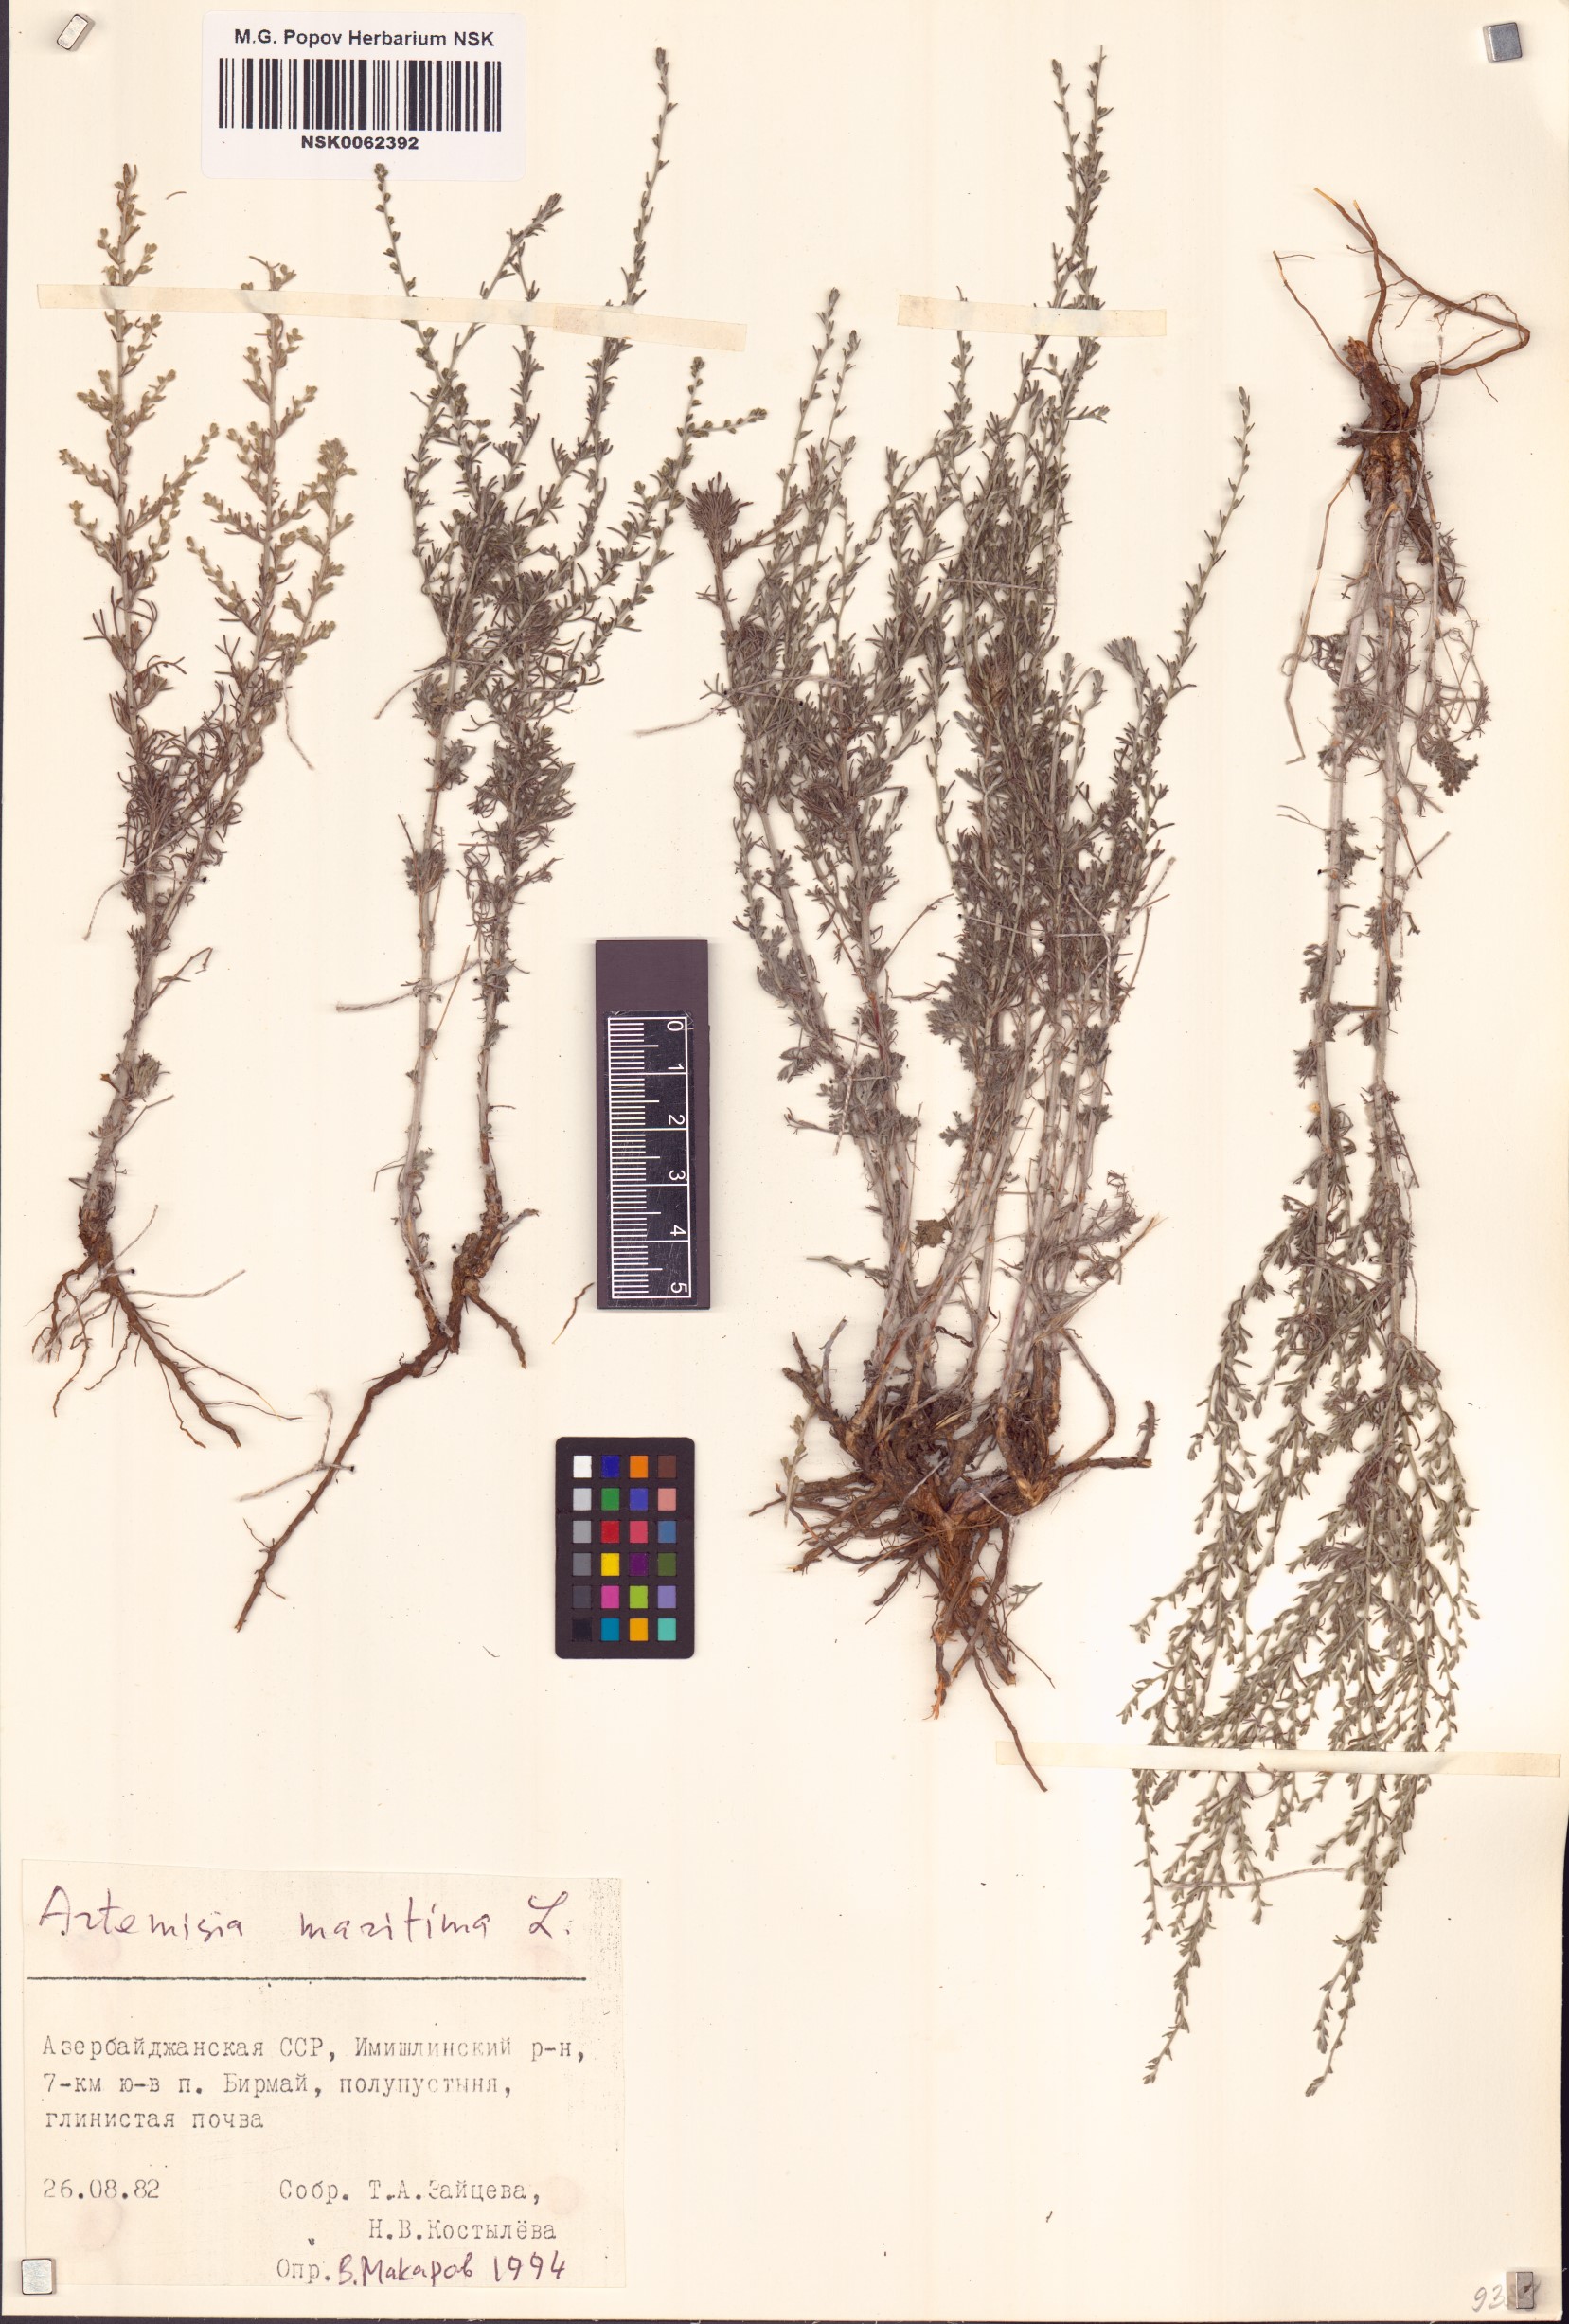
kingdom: Plantae
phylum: Tracheophyta
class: Magnoliopsida
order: Asterales
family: Asteraceae
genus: Artemisia
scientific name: Artemisia maritima
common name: Wormseed
